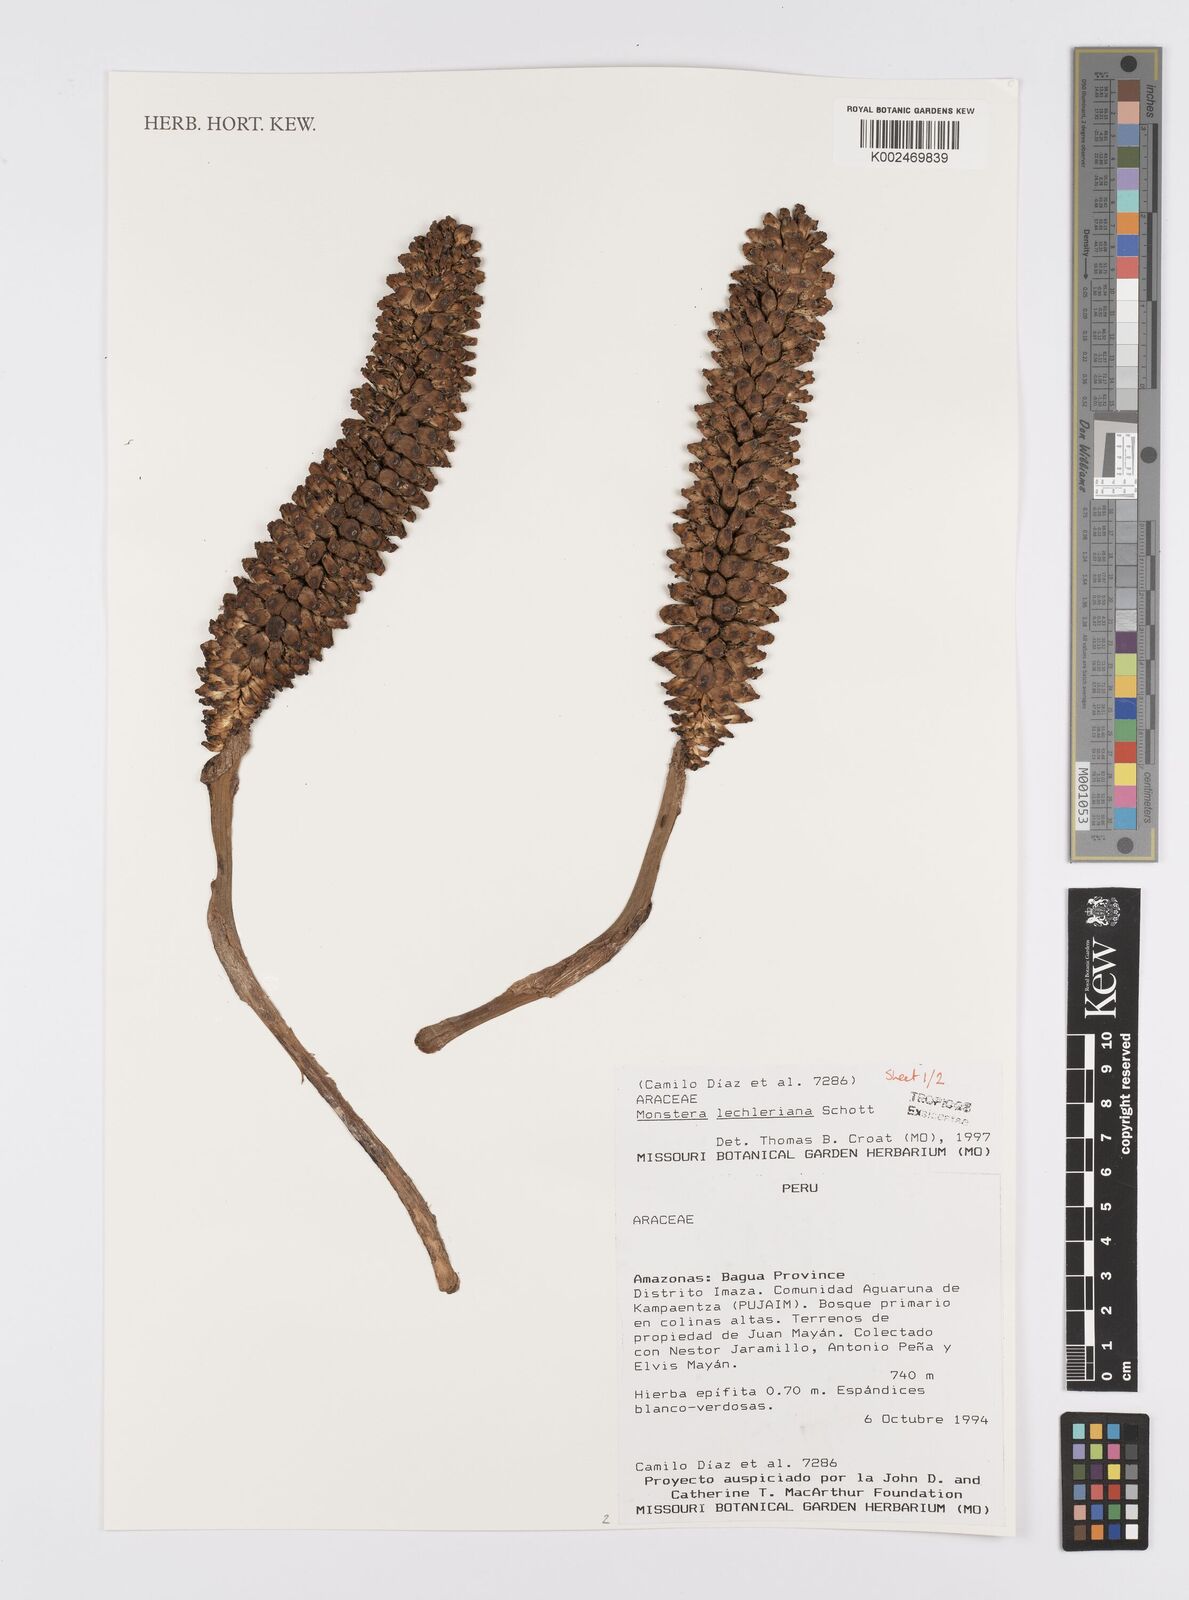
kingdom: Plantae
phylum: Tracheophyta
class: Liliopsida
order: Alismatales
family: Araceae
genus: Monstera
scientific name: Monstera lechleriana
